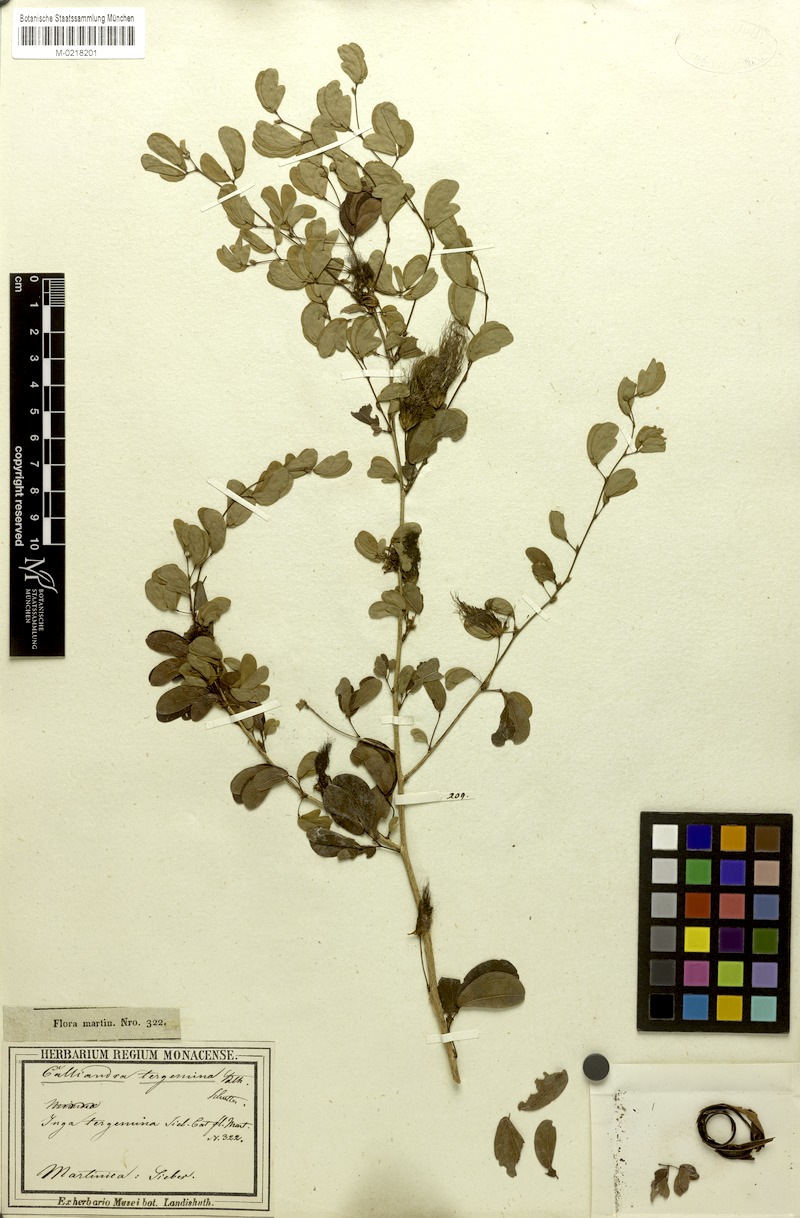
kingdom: Plantae
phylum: Tracheophyta
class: Magnoliopsida
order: Fabales
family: Fabaceae
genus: Calliandra
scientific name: Calliandra tergemina
